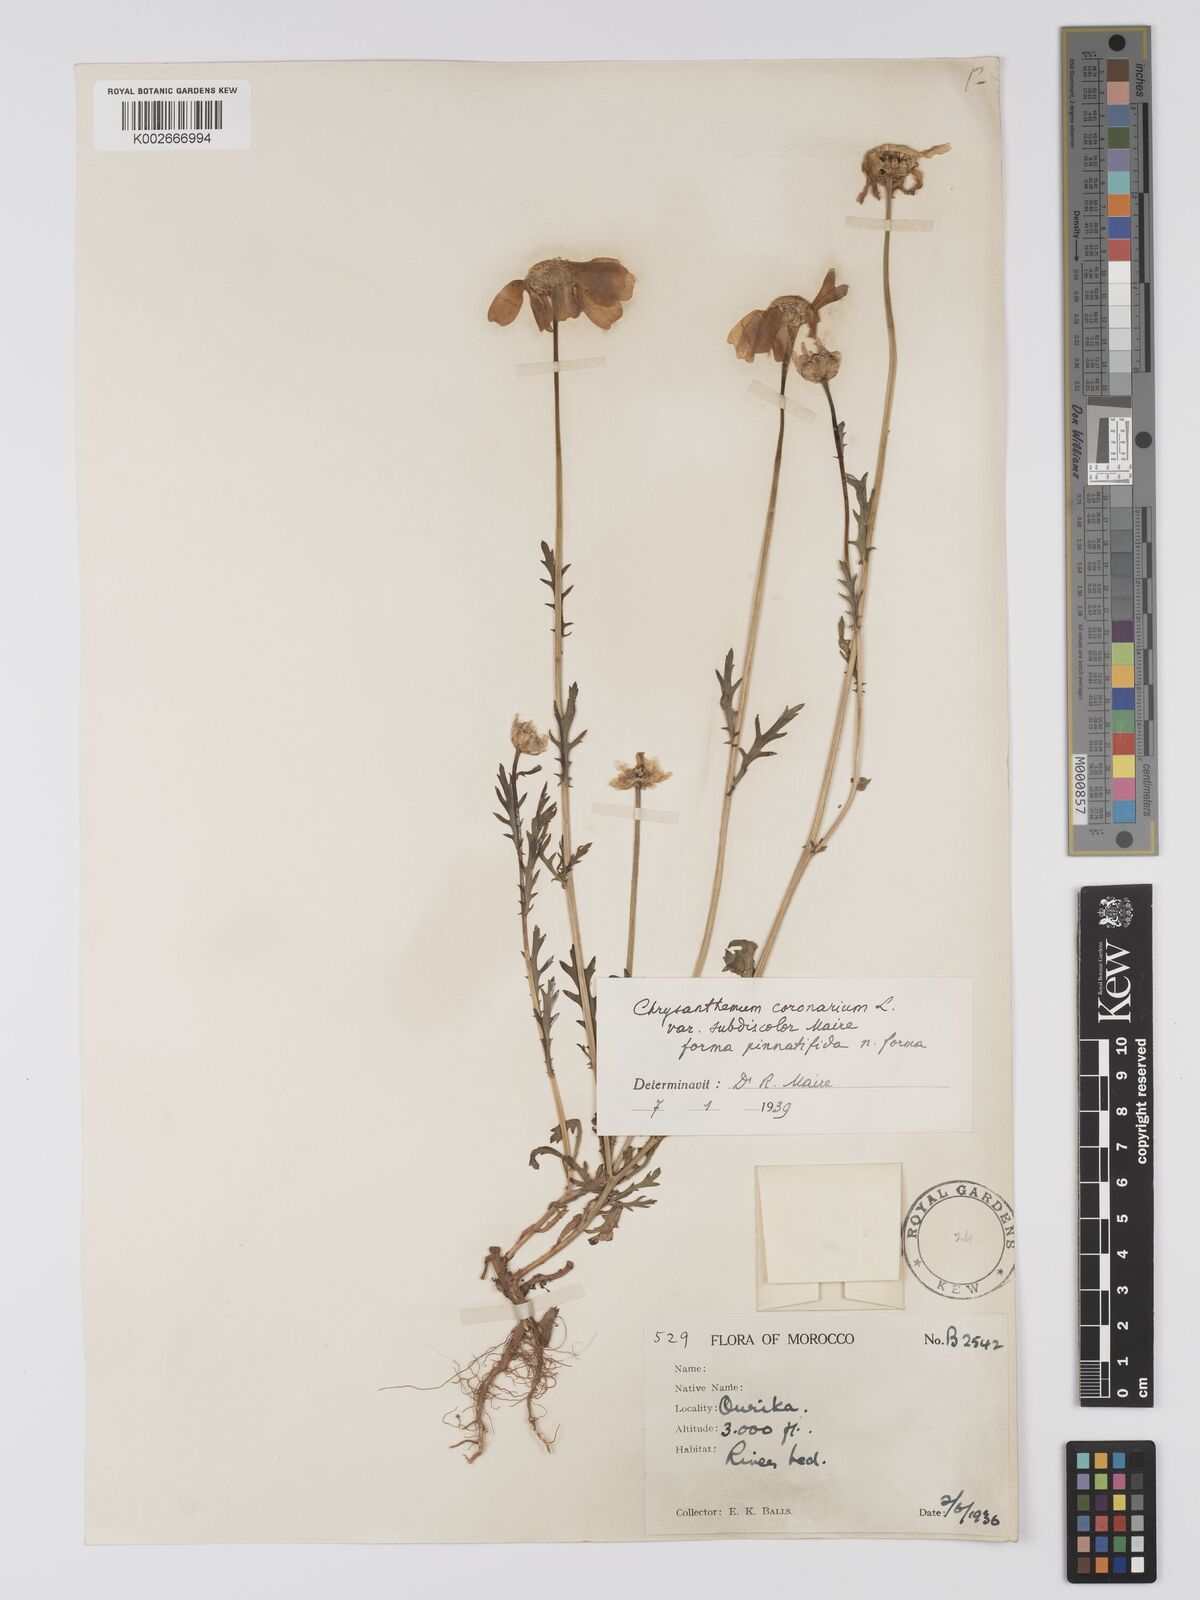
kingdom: Plantae
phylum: Tracheophyta
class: Magnoliopsida
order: Asterales
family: Asteraceae
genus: Glebionis
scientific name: Glebionis coronaria
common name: Crowndaisy
